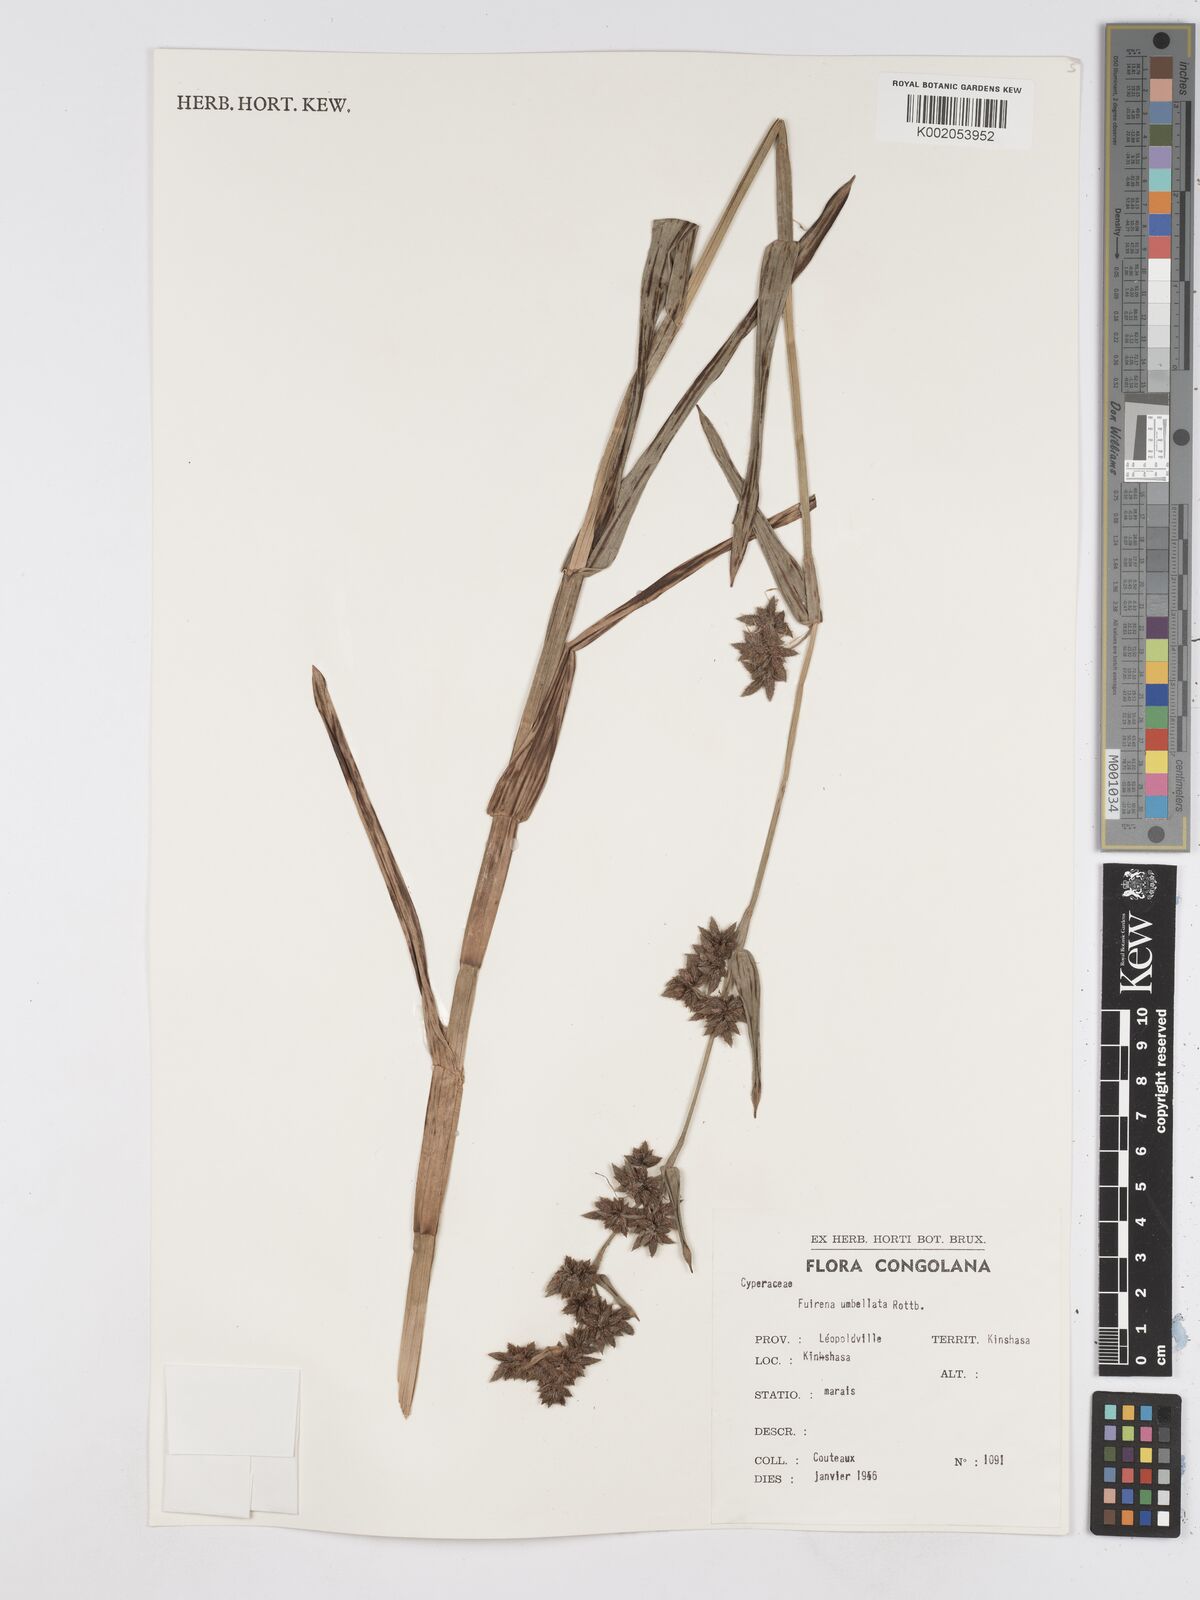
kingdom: Plantae
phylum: Tracheophyta
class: Liliopsida
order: Poales
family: Cyperaceae
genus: Fuirena
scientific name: Fuirena umbellata
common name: Yefen
